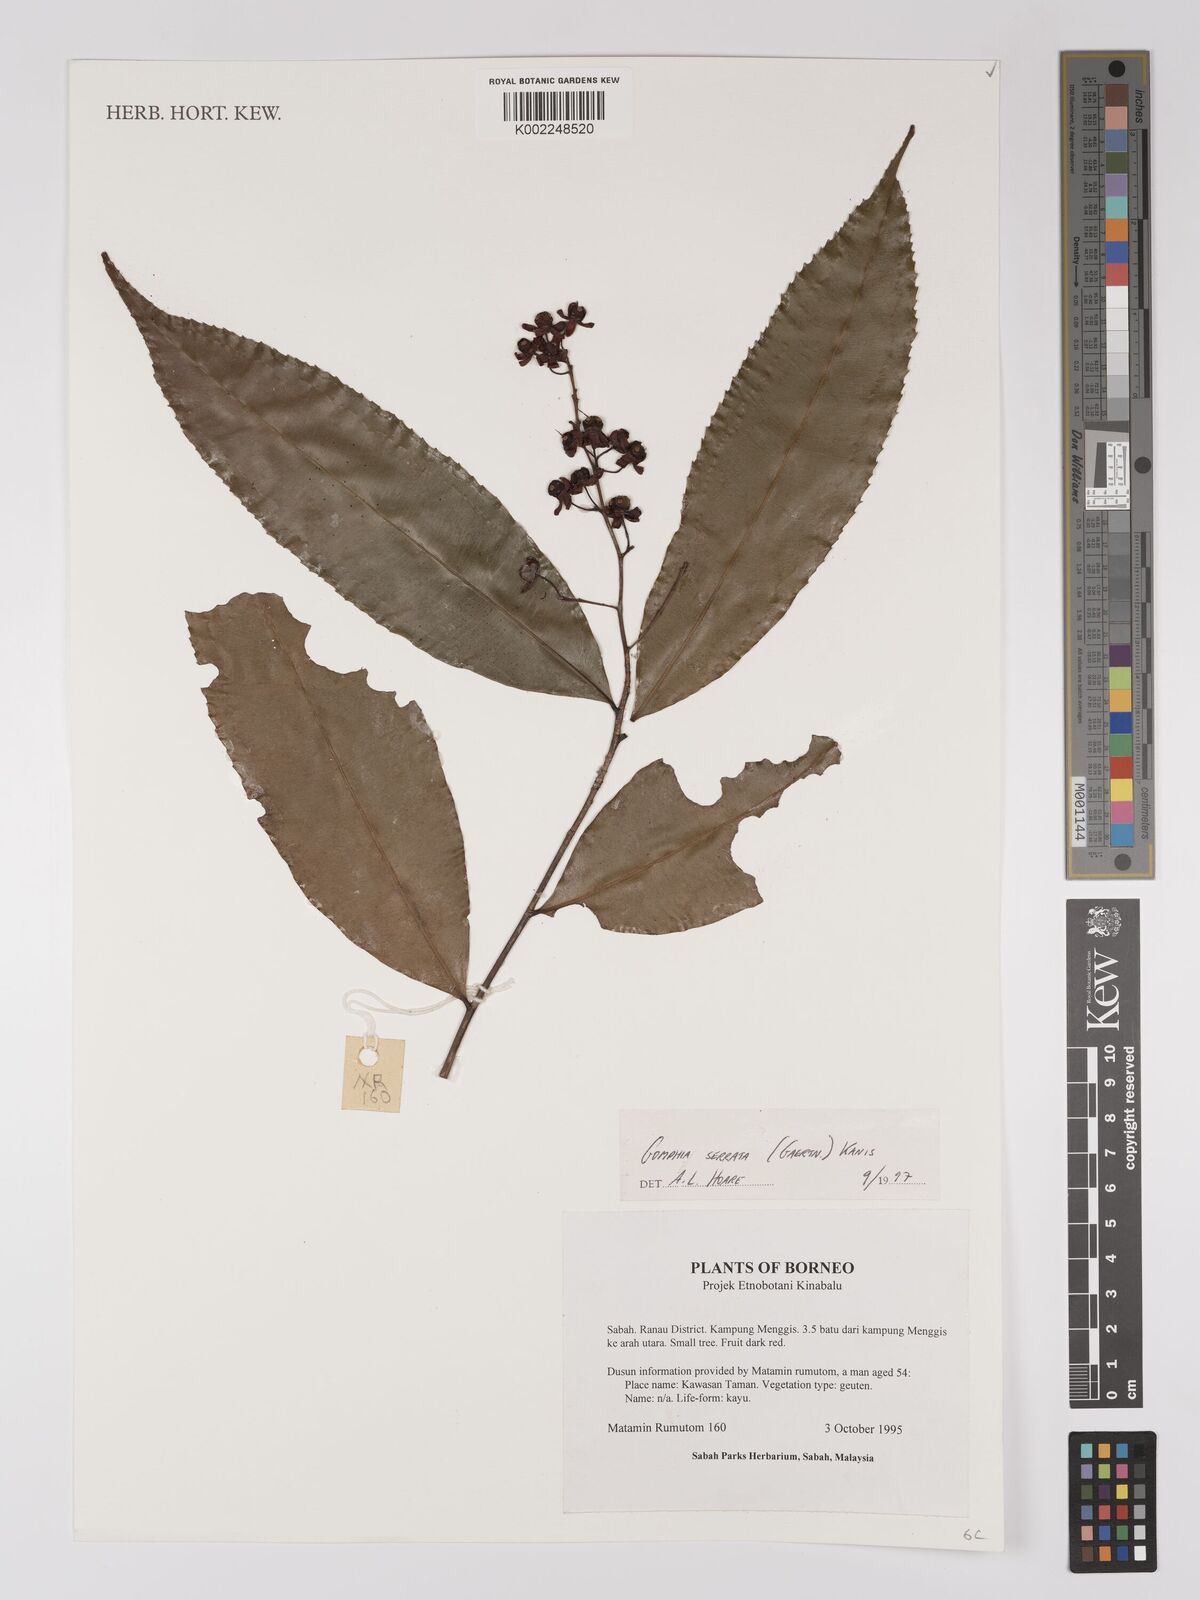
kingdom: Plantae
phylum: Tracheophyta
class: Magnoliopsida
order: Malpighiales
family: Ochnaceae
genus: Gomphia
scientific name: Gomphia serrata
